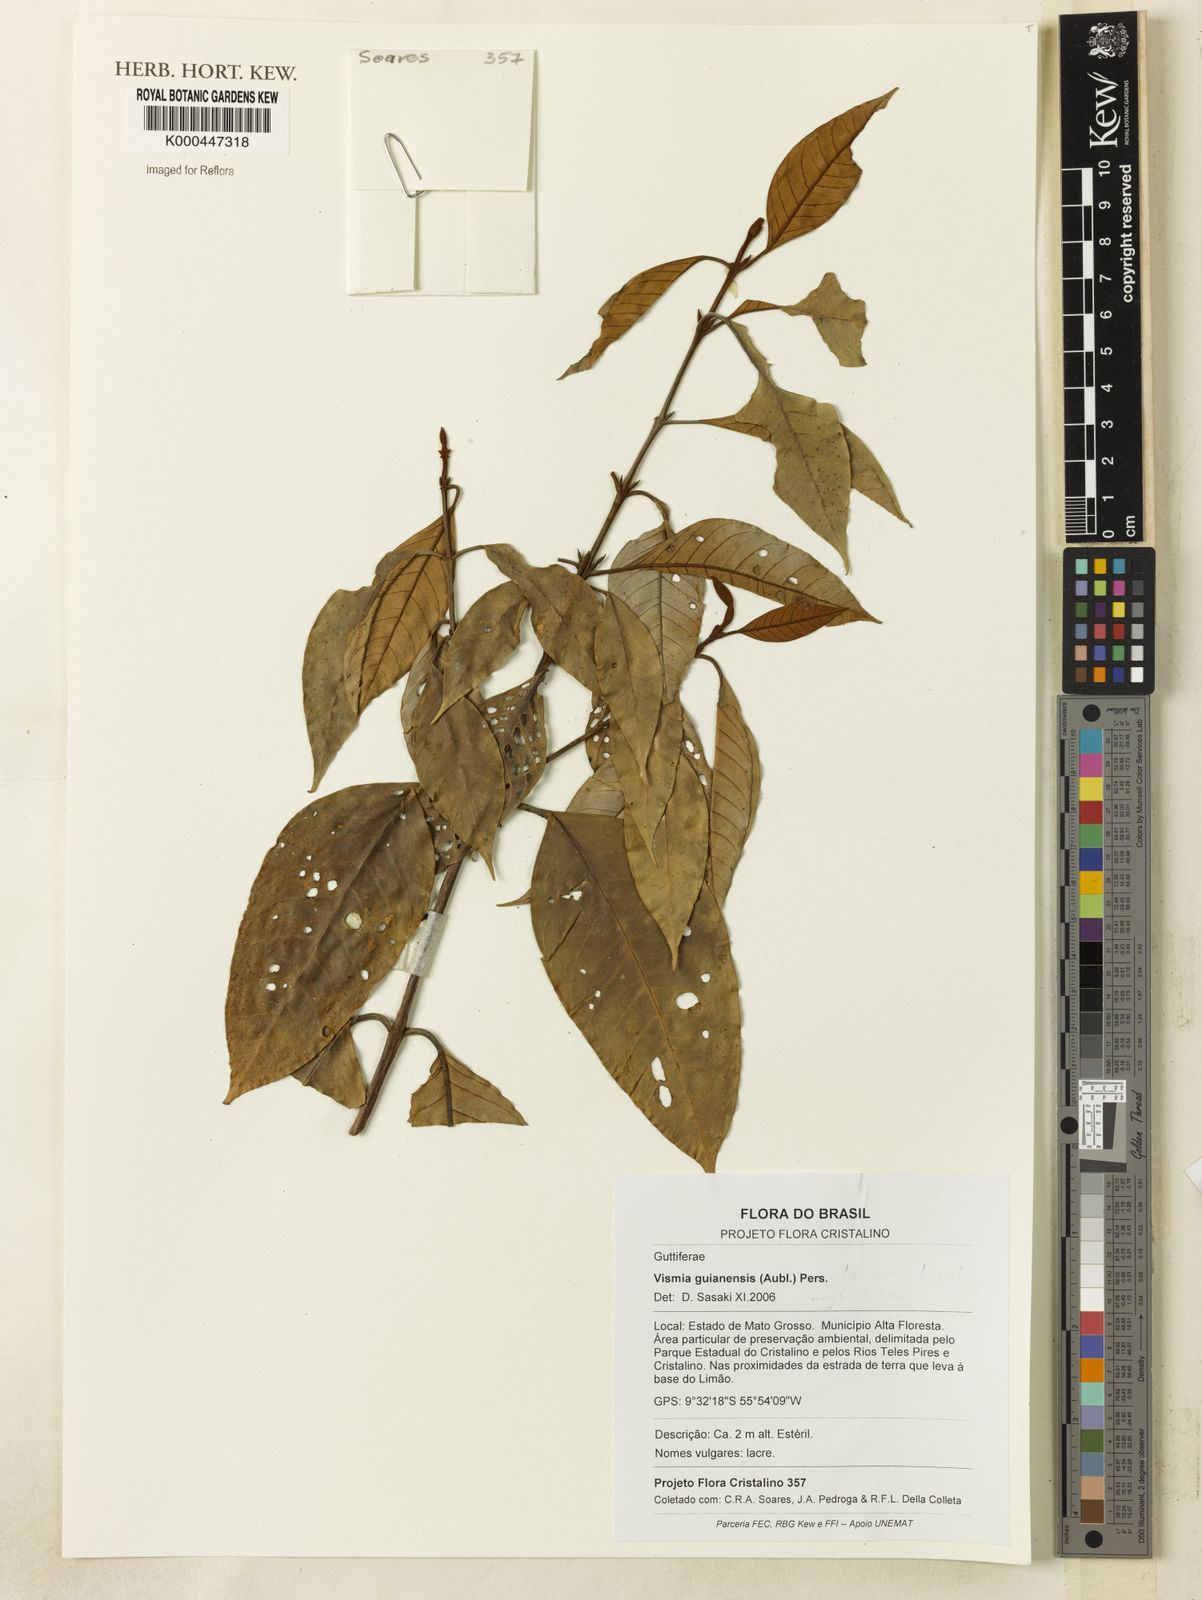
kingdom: Plantae
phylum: Tracheophyta
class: Magnoliopsida
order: Malpighiales
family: Hypericaceae
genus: Vismia
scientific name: Vismia guianensis
